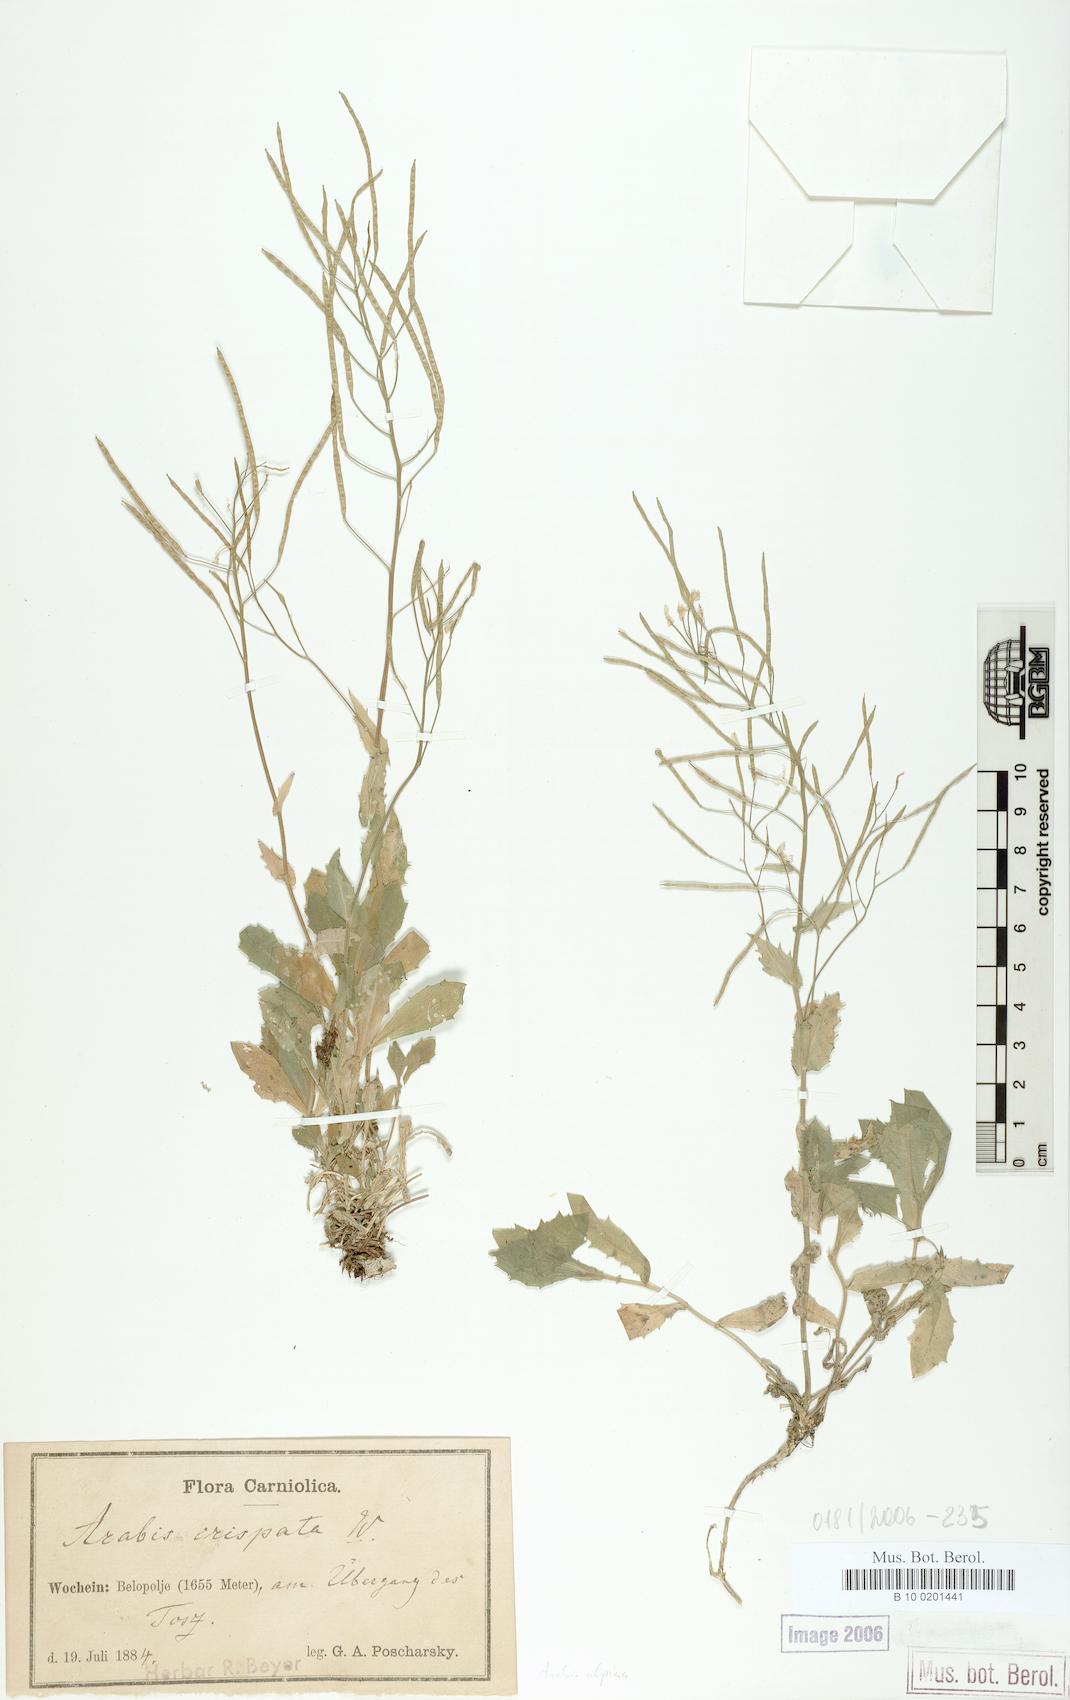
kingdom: Plantae
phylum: Tracheophyta
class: Magnoliopsida
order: Brassicales
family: Brassicaceae
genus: Arabis
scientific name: Arabis alpina
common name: Alpine rock-cress
